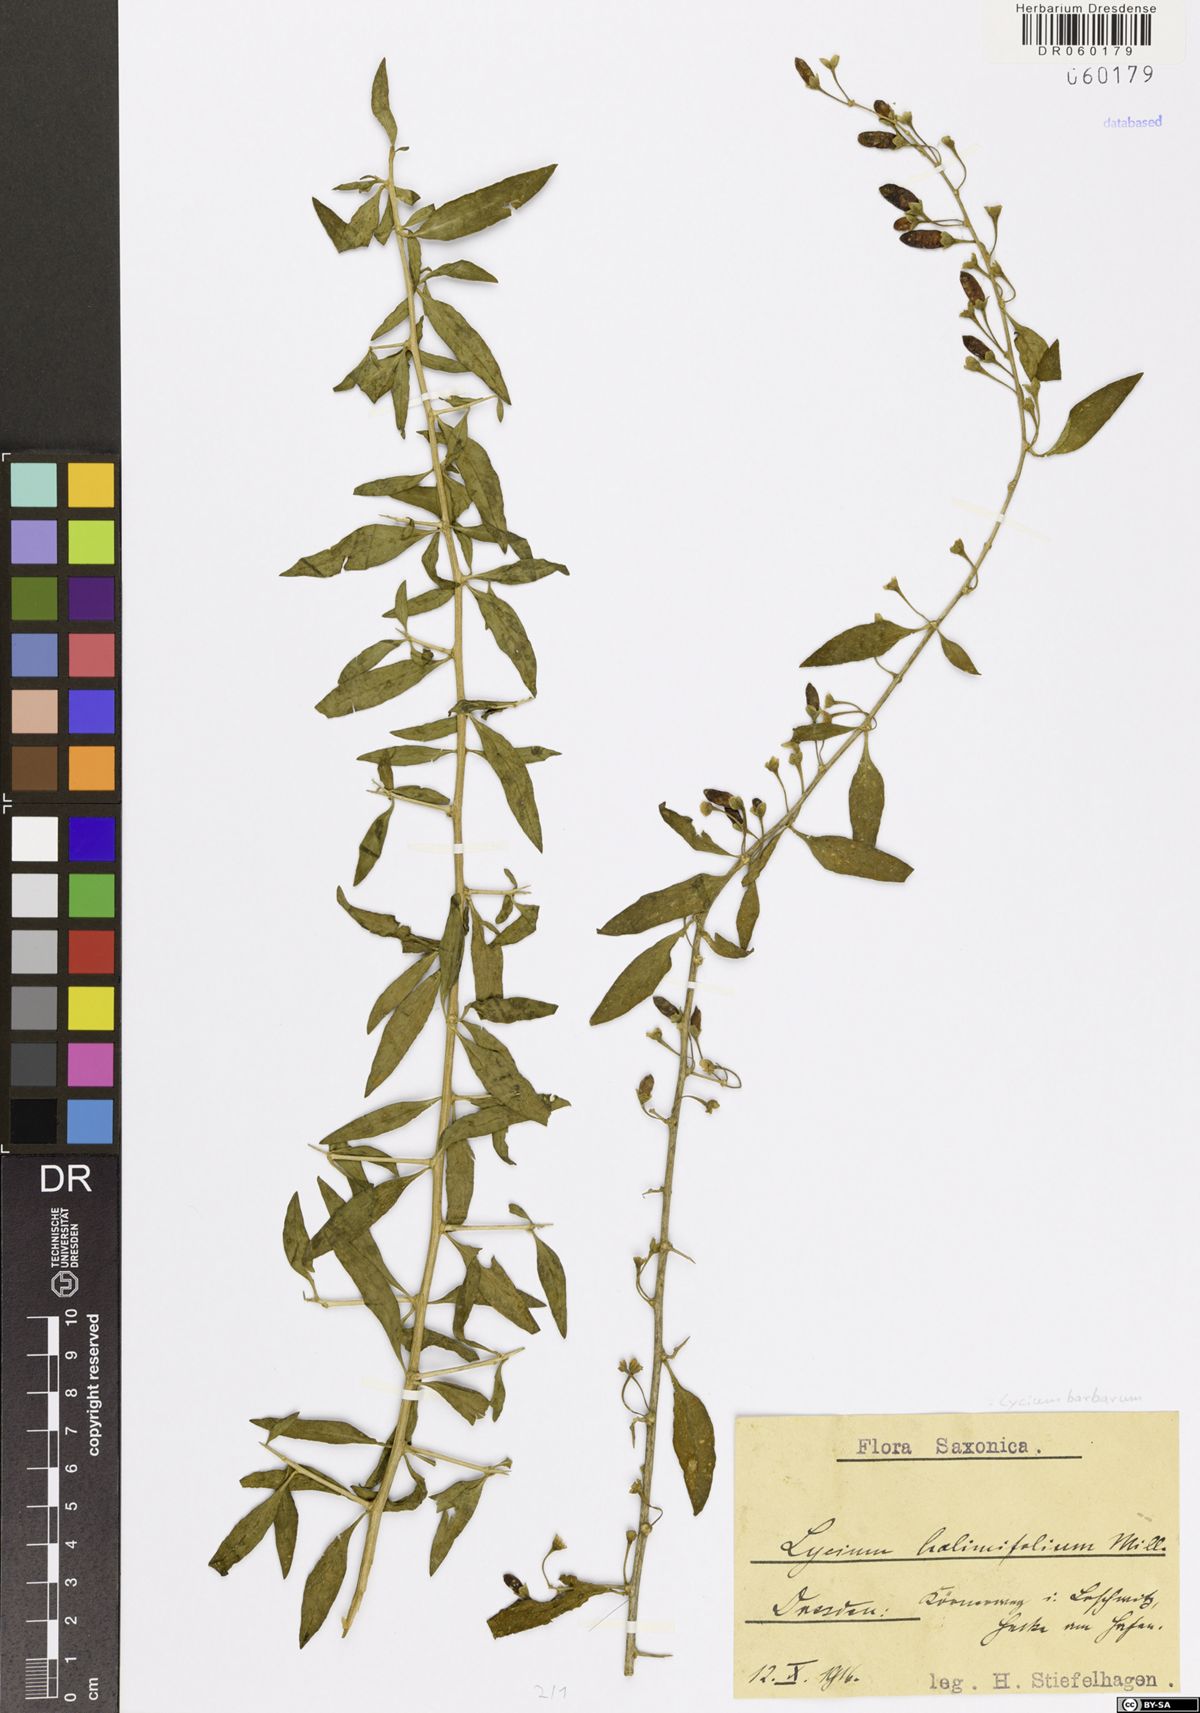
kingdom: Plantae
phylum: Tracheophyta
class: Magnoliopsida
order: Solanales
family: Solanaceae
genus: Lycium
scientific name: Lycium barbarum
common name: Duke of argyll's teaplant
